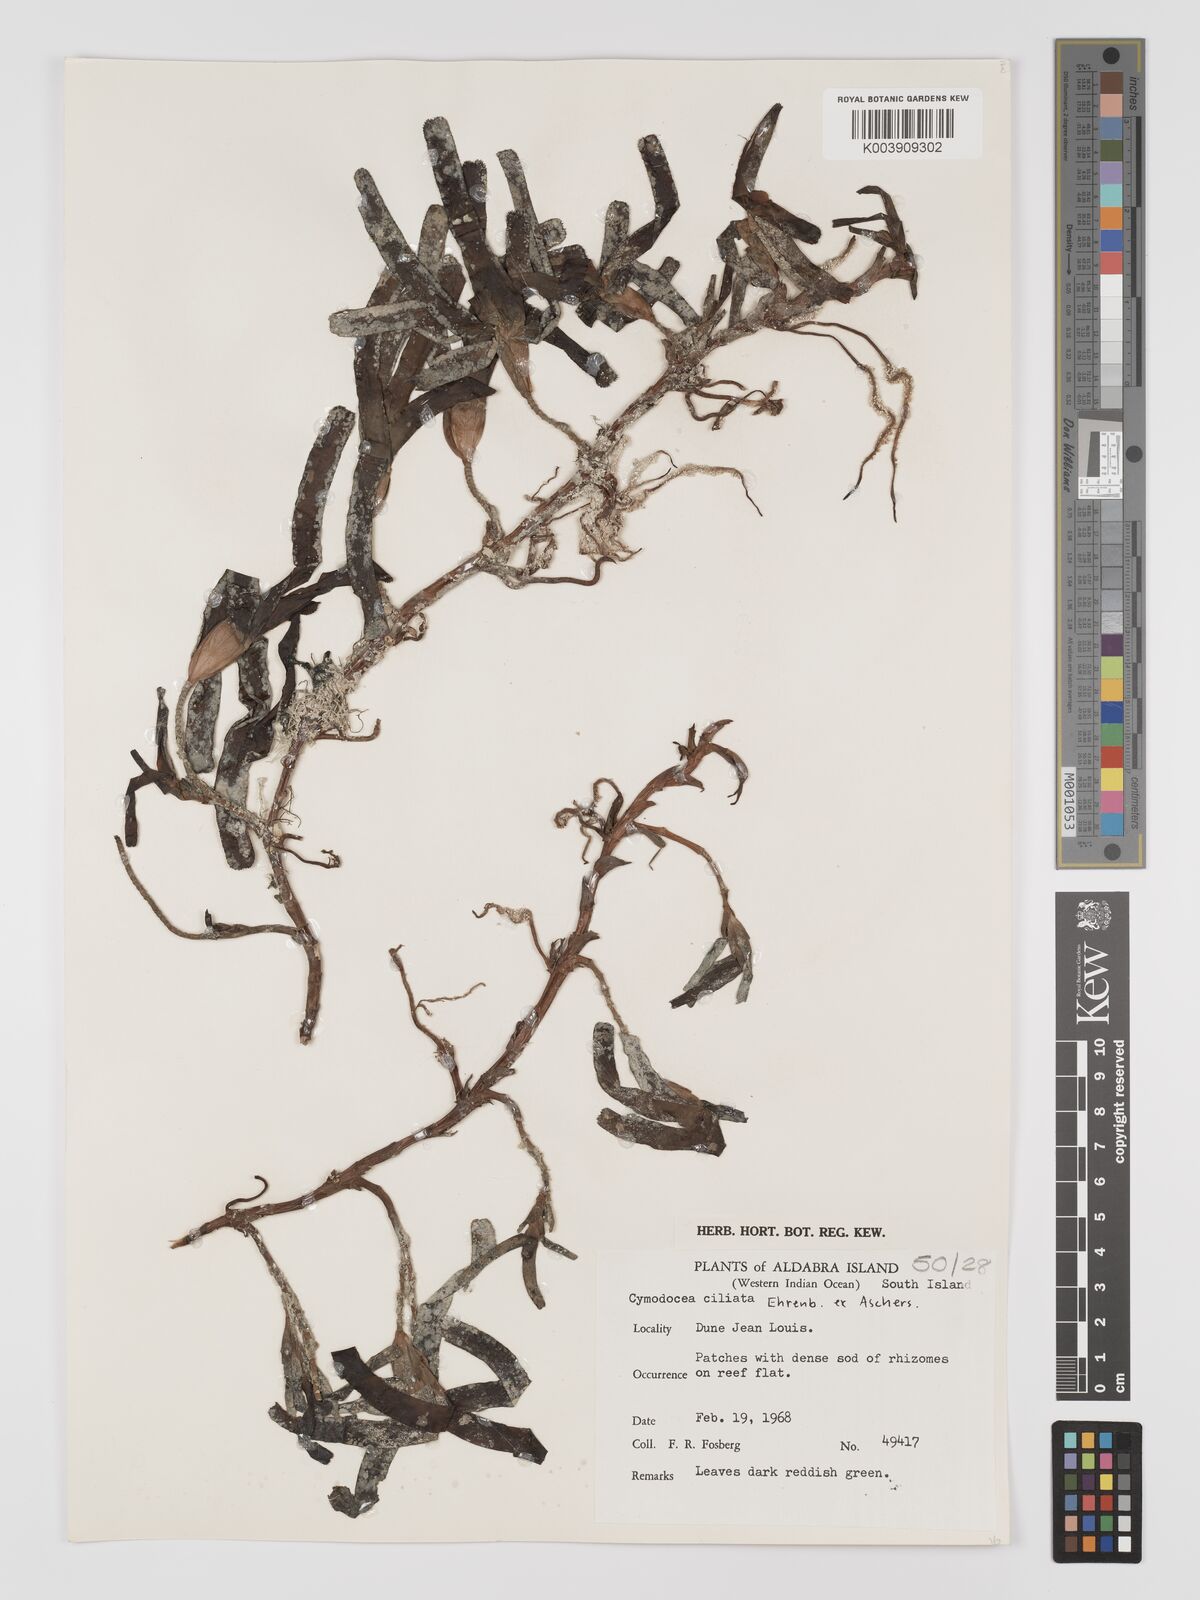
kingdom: Plantae
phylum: Tracheophyta
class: Liliopsida
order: Alismatales
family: Cymodoceaceae
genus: Thalassodendron
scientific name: Thalassodendron ciliatum
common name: Species code: tc
